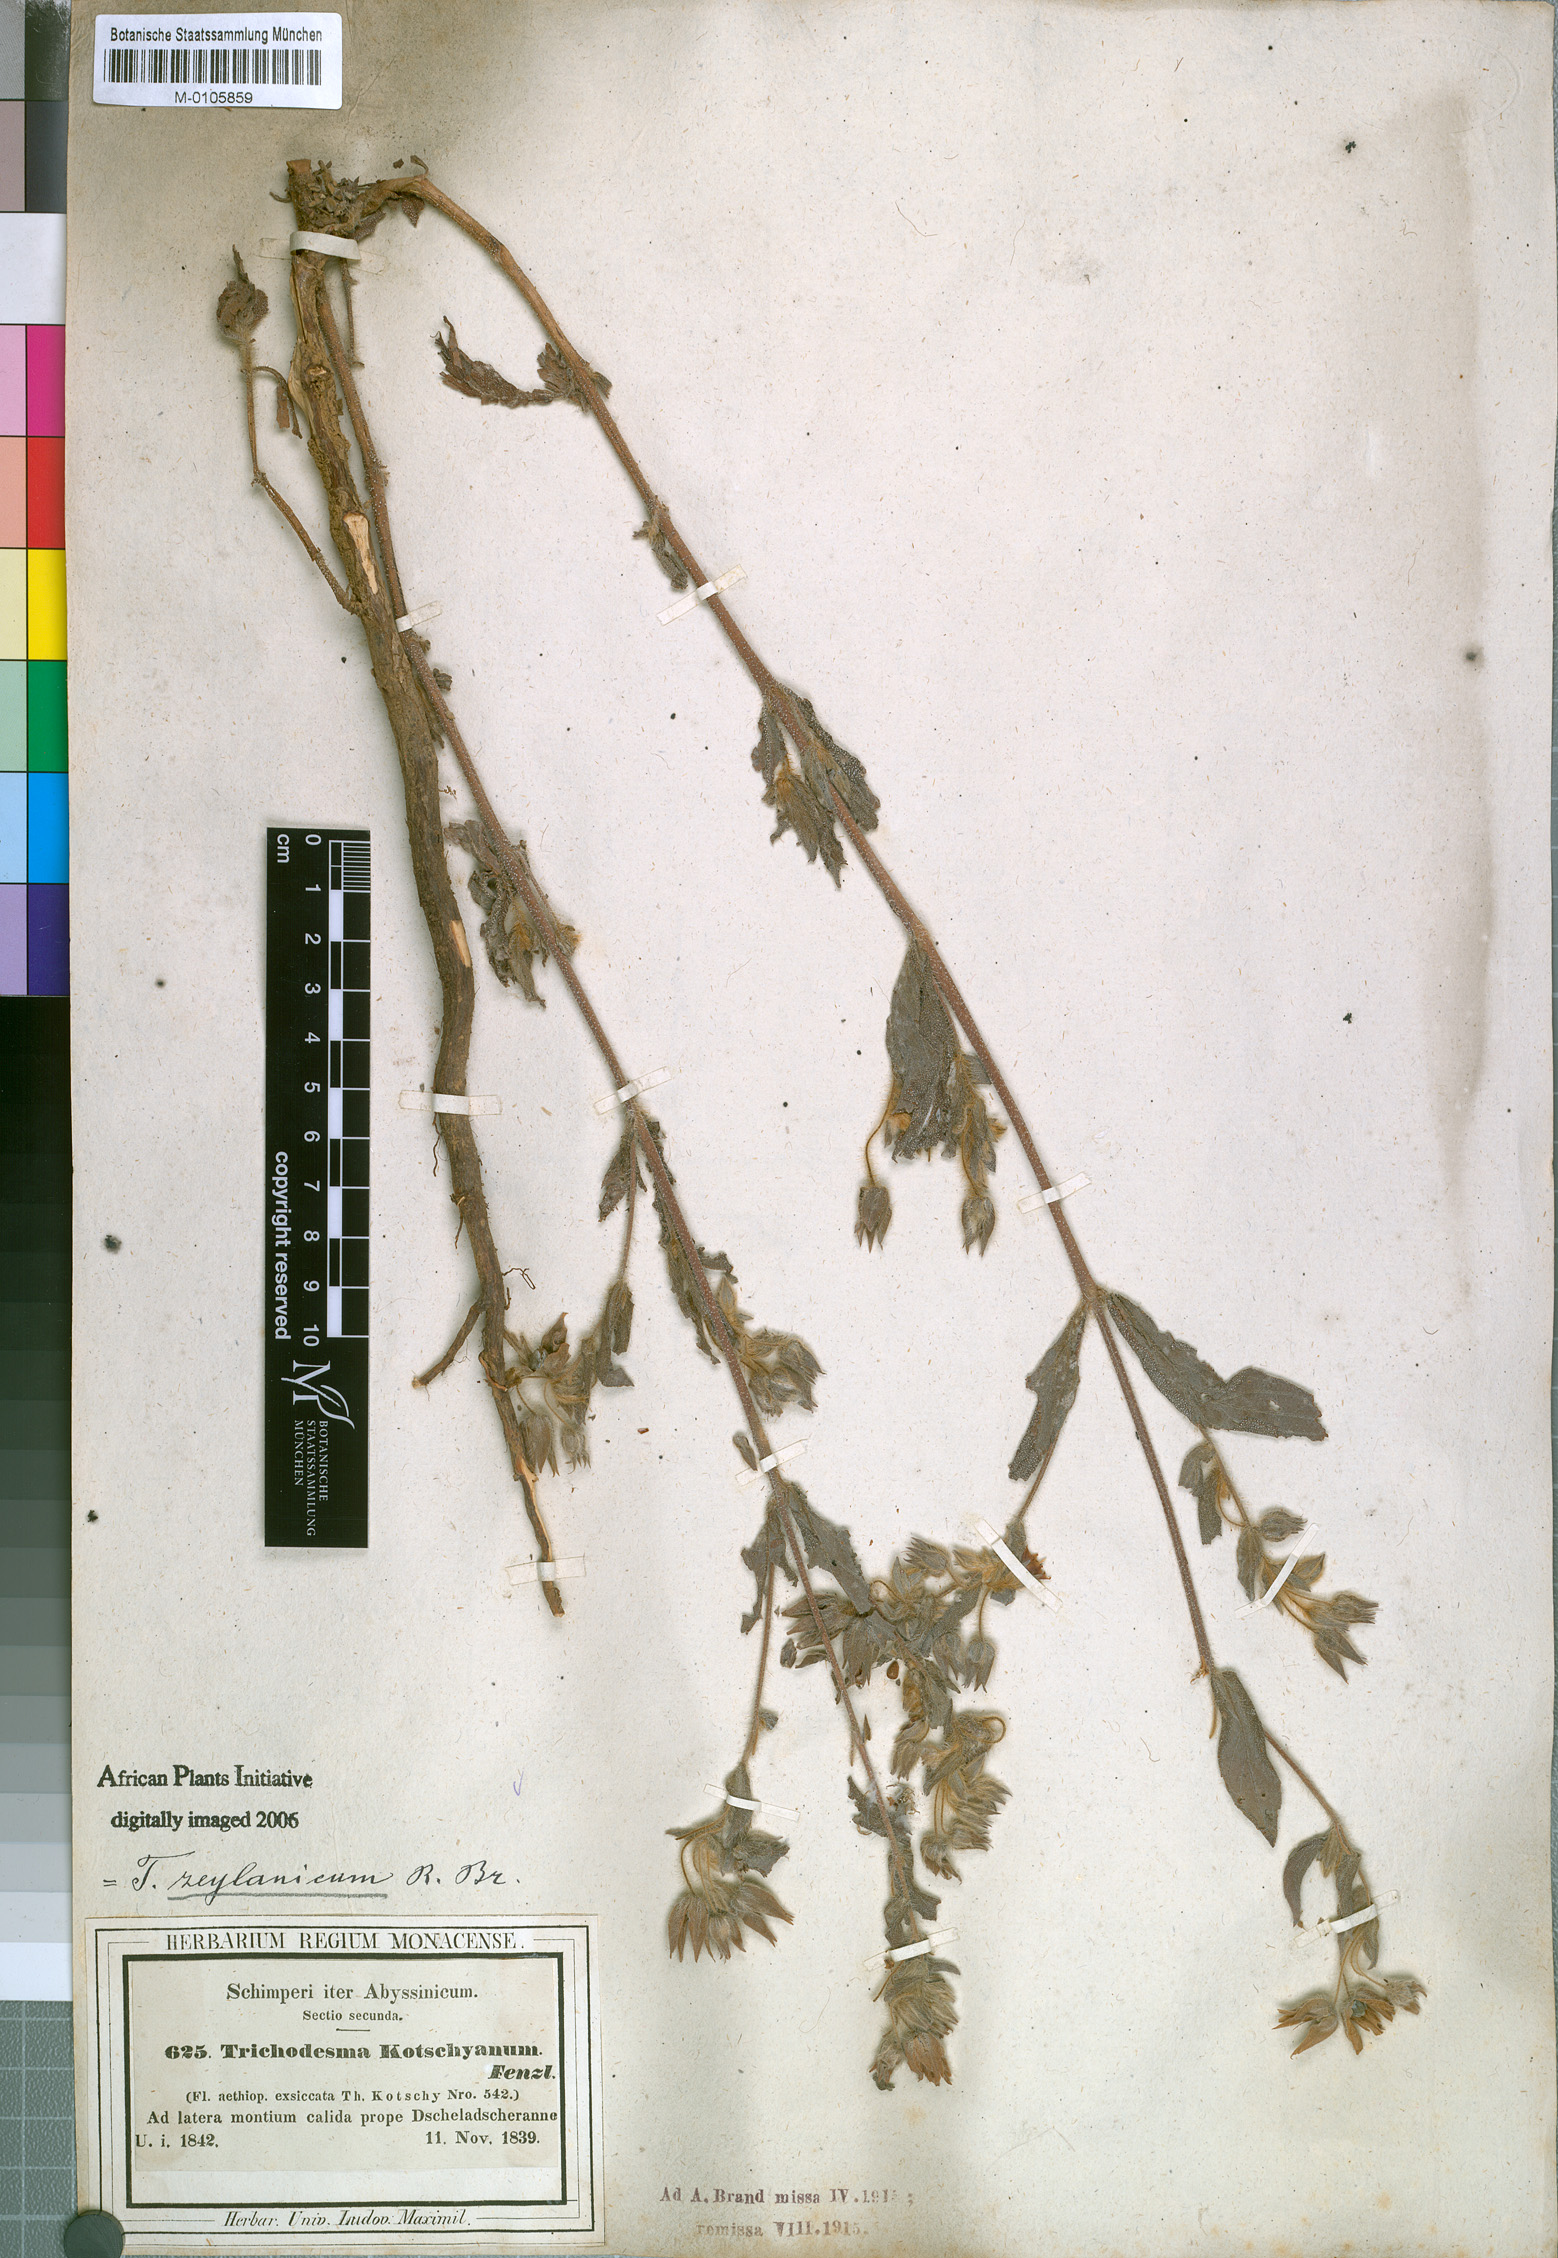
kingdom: Plantae
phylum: Tracheophyta
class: Magnoliopsida
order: Boraginales
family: Boraginaceae
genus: Trichodesma
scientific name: Trichodesma zeylanicum
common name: Camelbush
